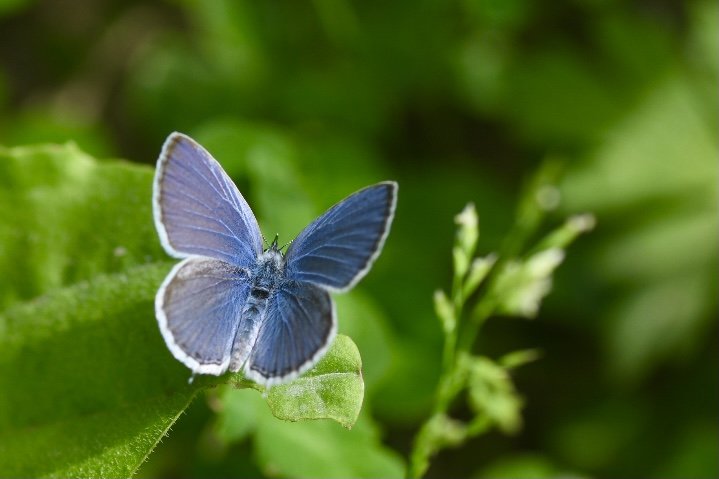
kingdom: Animalia
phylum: Arthropoda
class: Insecta
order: Lepidoptera
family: Lycaenidae
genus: Elkalyce
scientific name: Elkalyce amyntula
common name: Western Tailed-Blue
